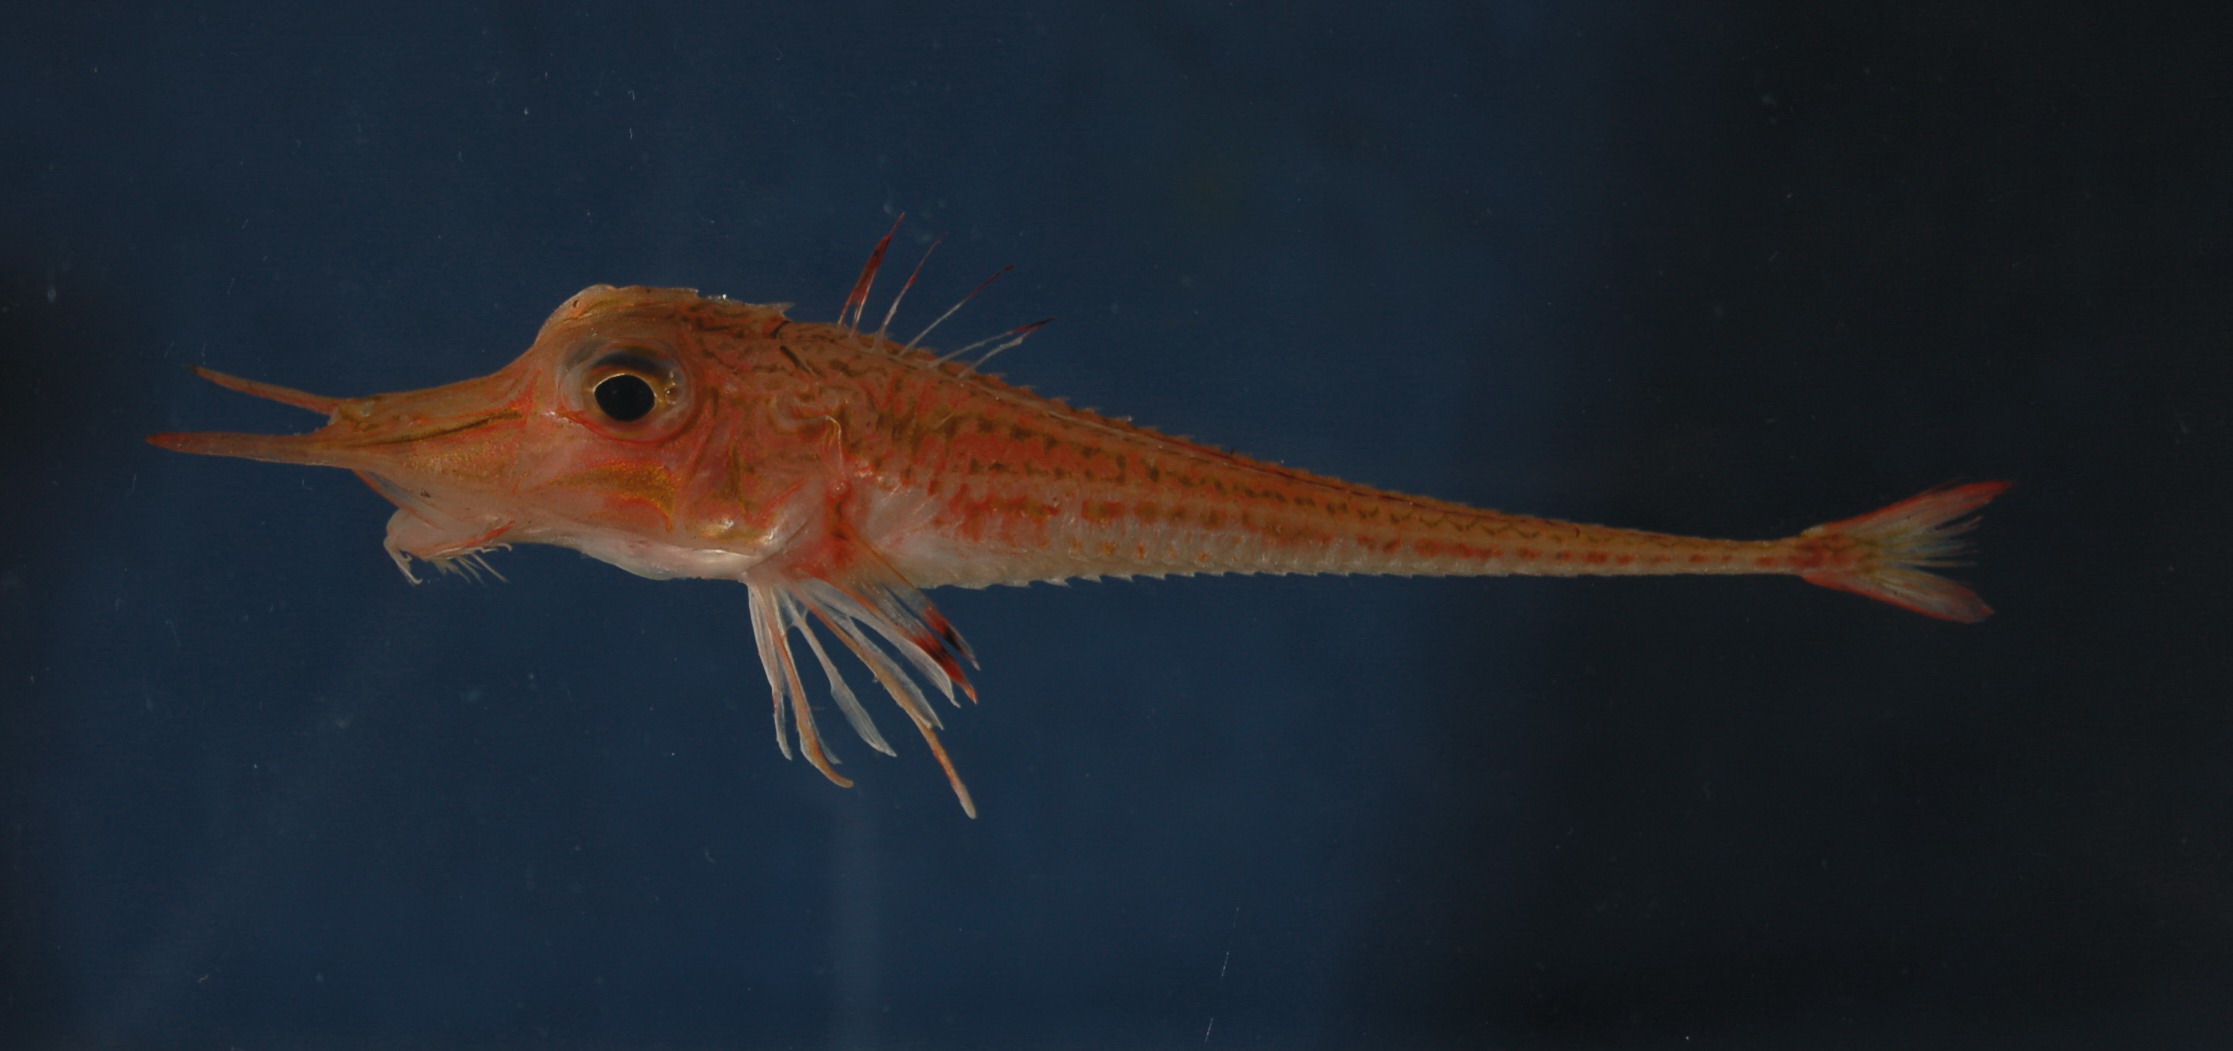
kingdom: Animalia
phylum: Chordata
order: Scorpaeniformes
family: Peristediidae
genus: Peristedion
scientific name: Peristedion weberi
